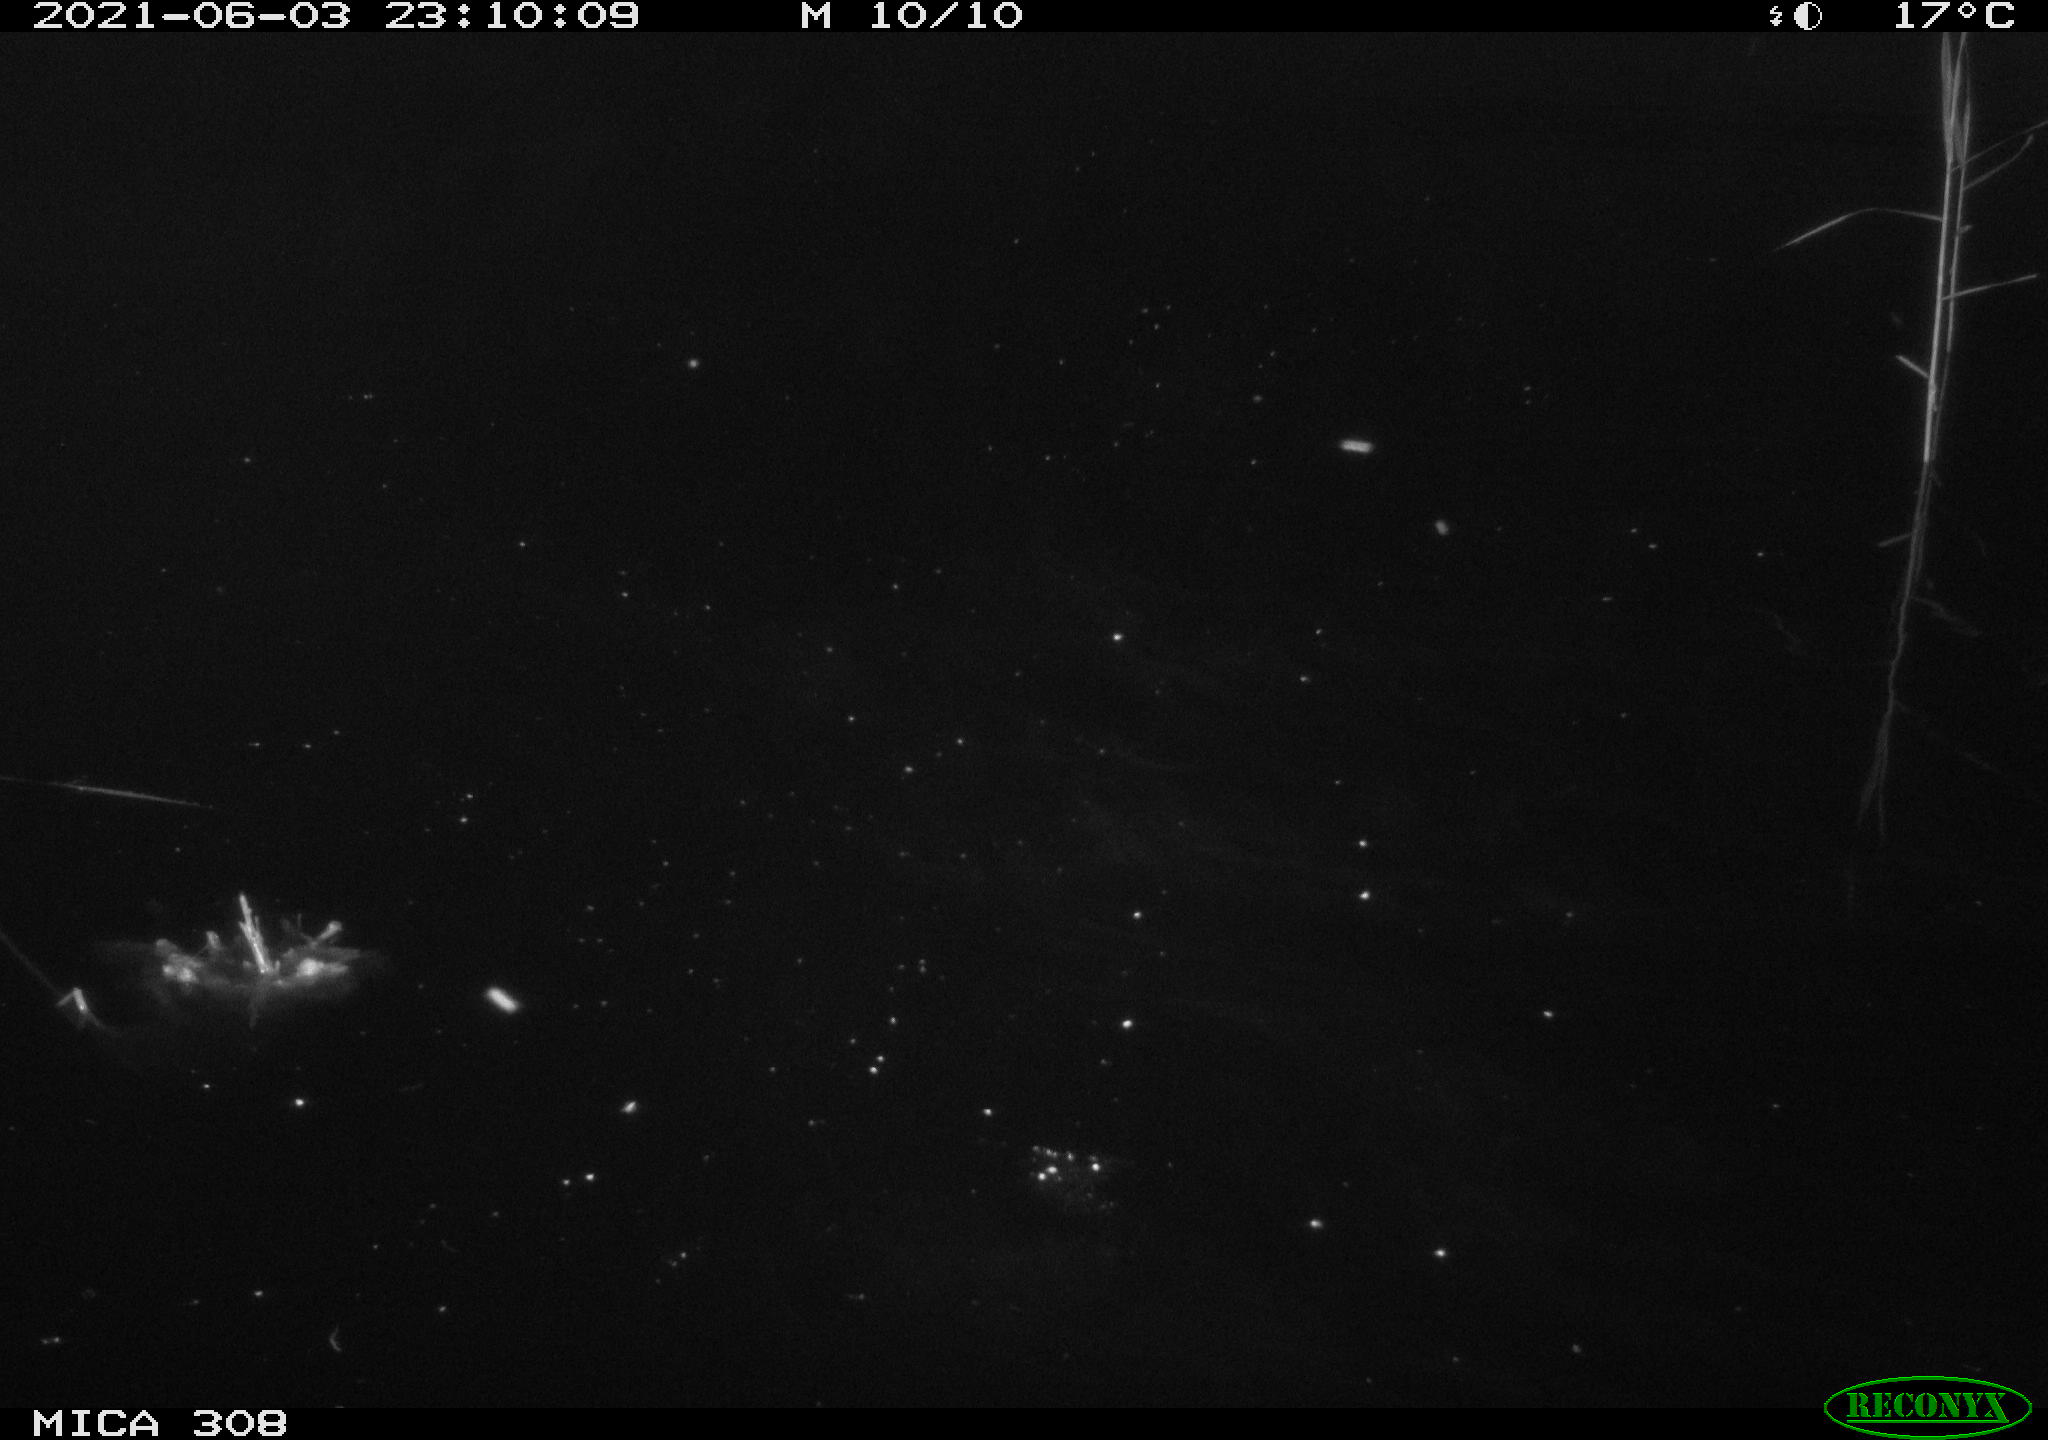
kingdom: Animalia
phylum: Chordata
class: Aves
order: Anseriformes
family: Anatidae
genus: Anas
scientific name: Anas platyrhynchos
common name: Mallard
